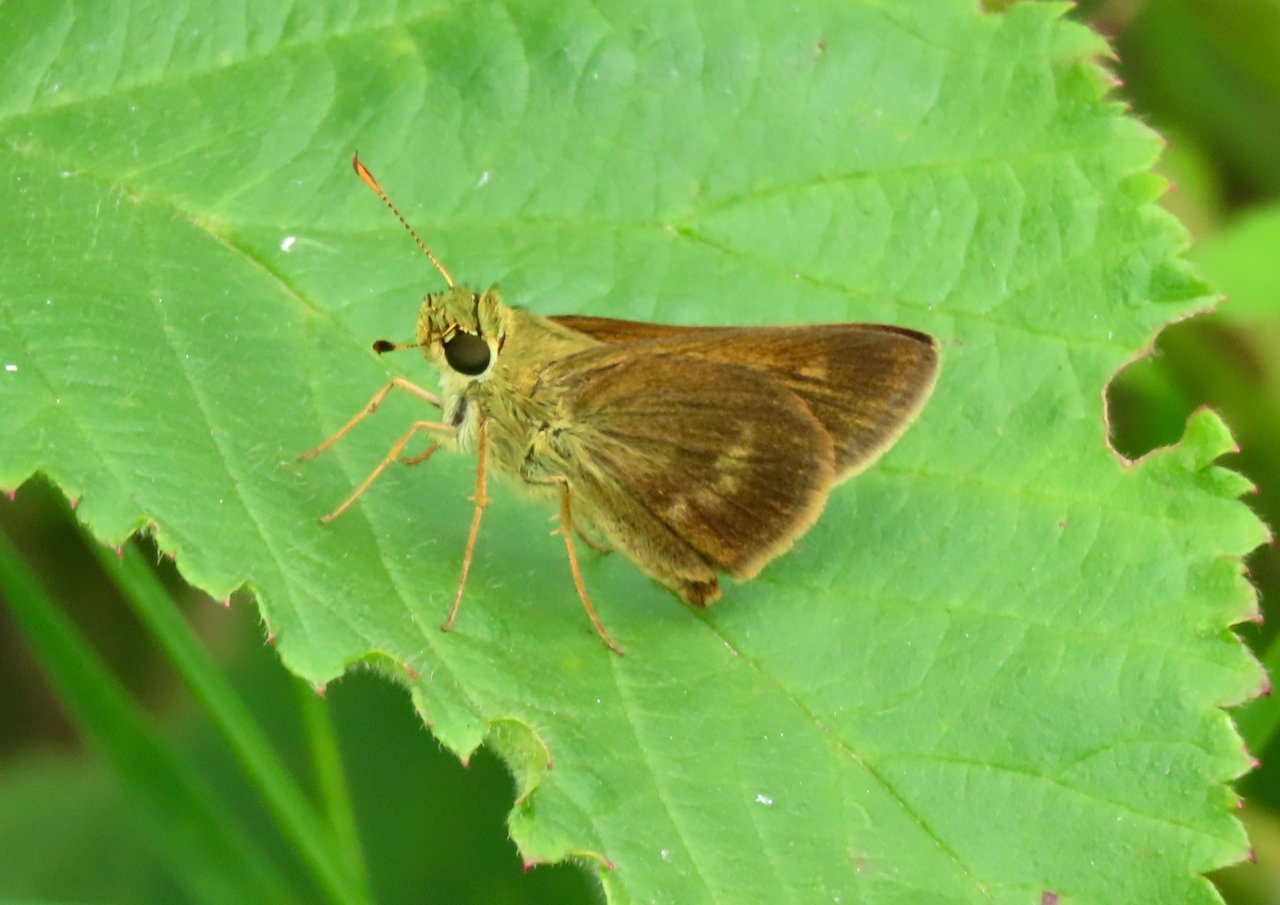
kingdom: Animalia
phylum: Arthropoda
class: Insecta
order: Lepidoptera
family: Hesperiidae
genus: Polites
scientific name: Polites egeremet
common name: Northern Broken-Dash
